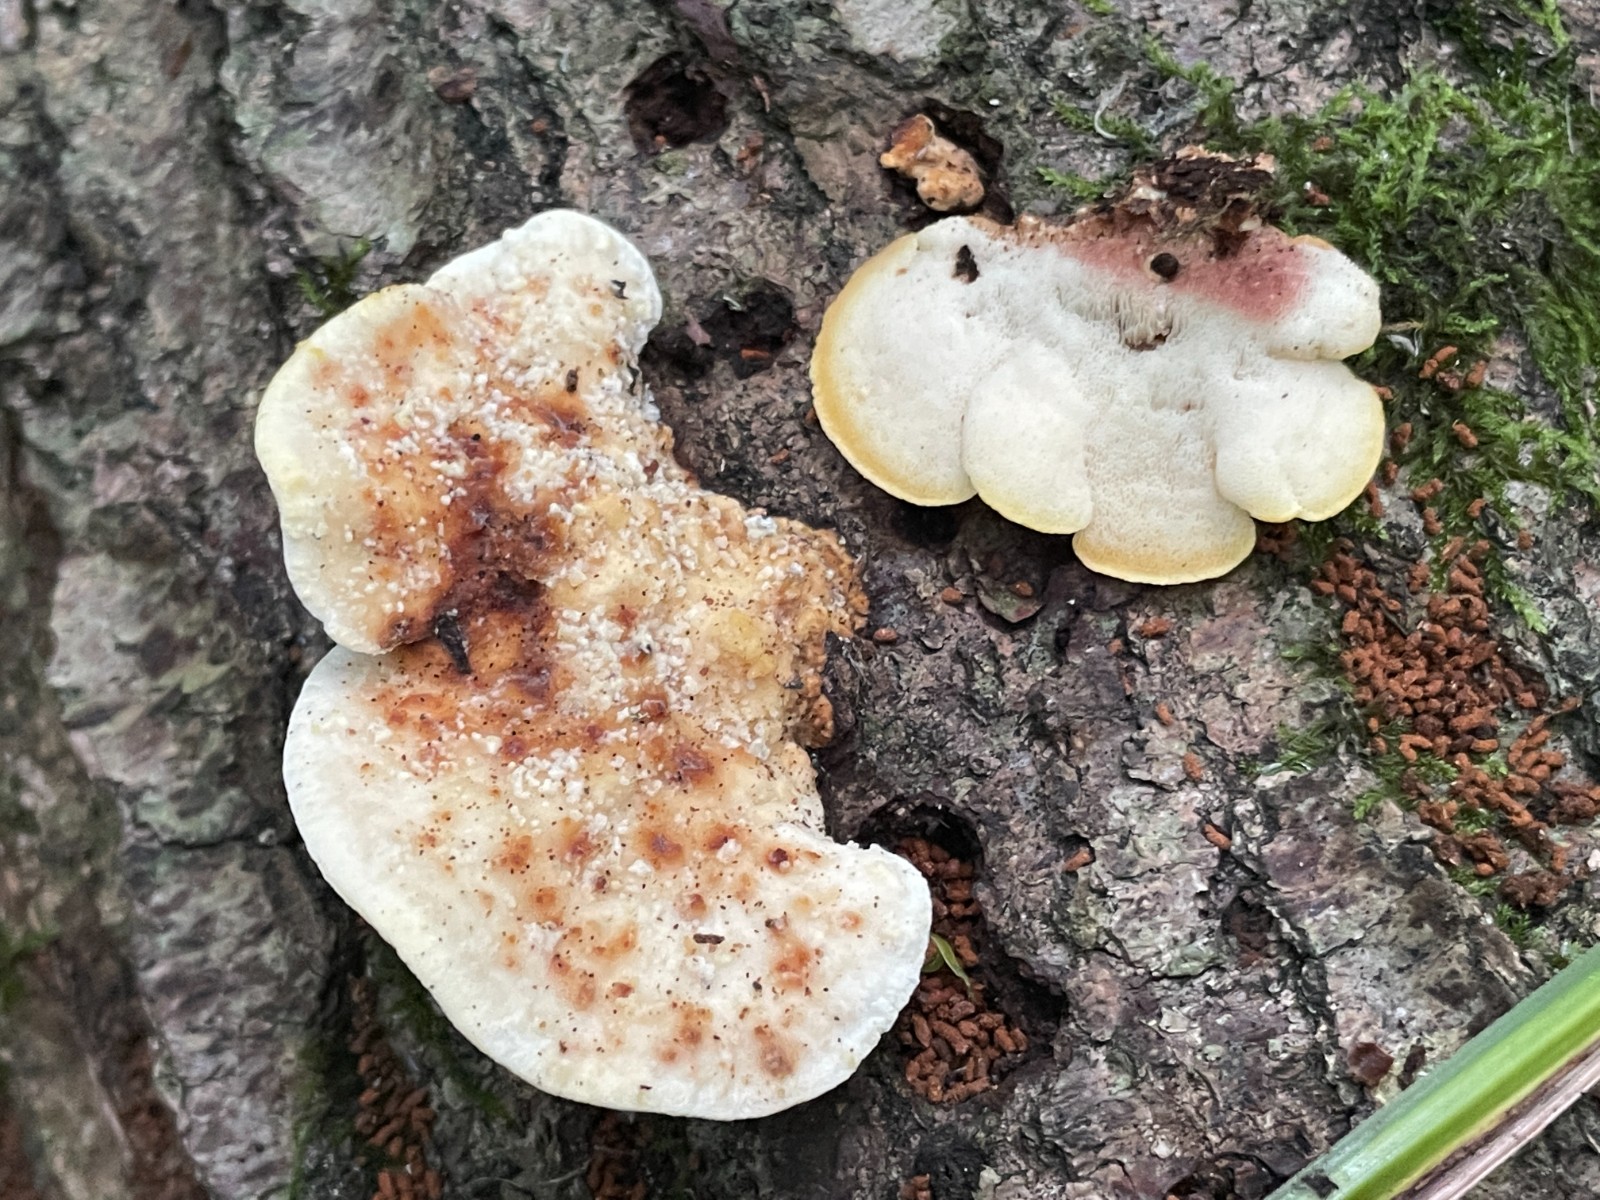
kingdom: Fungi
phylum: Basidiomycota
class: Agaricomycetes
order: Polyporales
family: Steccherinaceae
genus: Antrodiella
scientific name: Antrodiella serpula
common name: gulrandet elastikporesvamp
